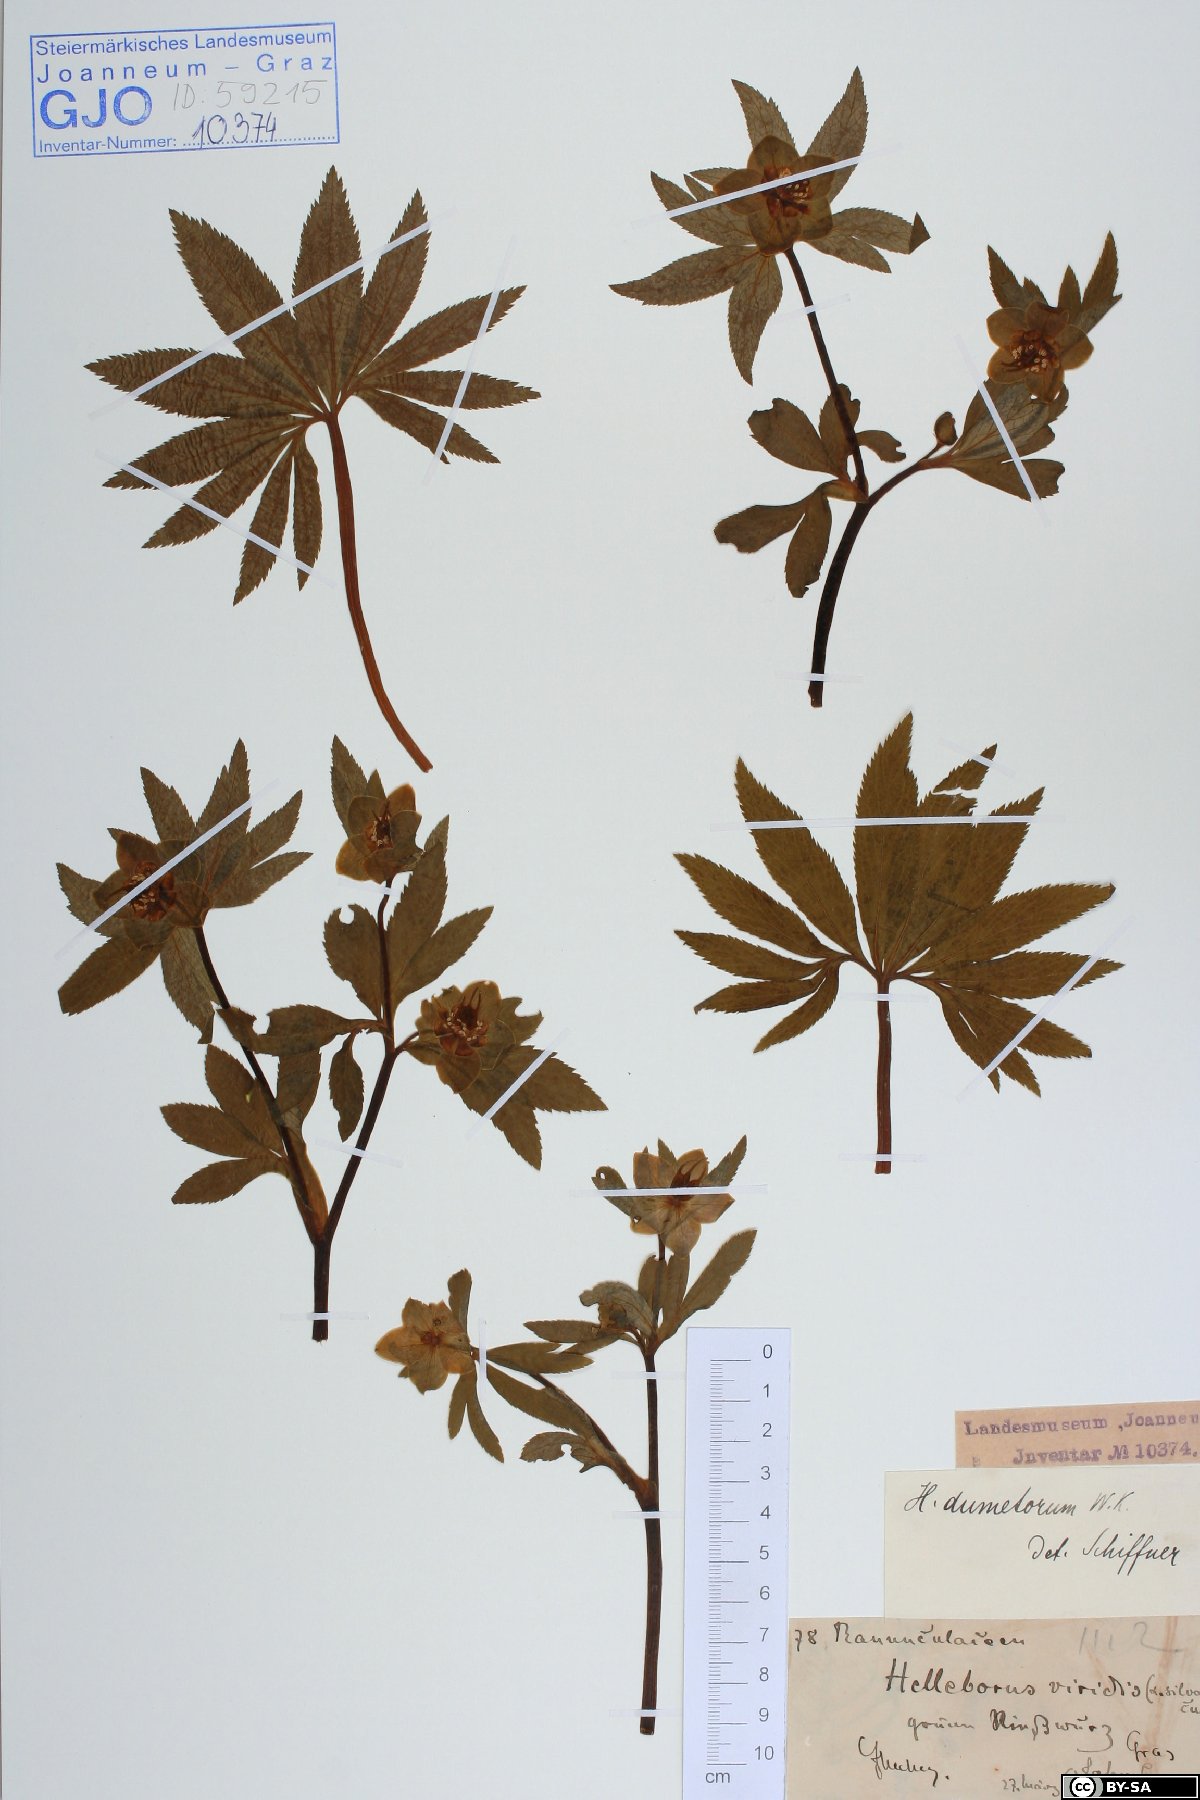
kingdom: Plantae
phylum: Tracheophyta
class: Magnoliopsida
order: Ranunculales
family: Ranunculaceae
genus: Helleborus
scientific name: Helleborus dumetorum
